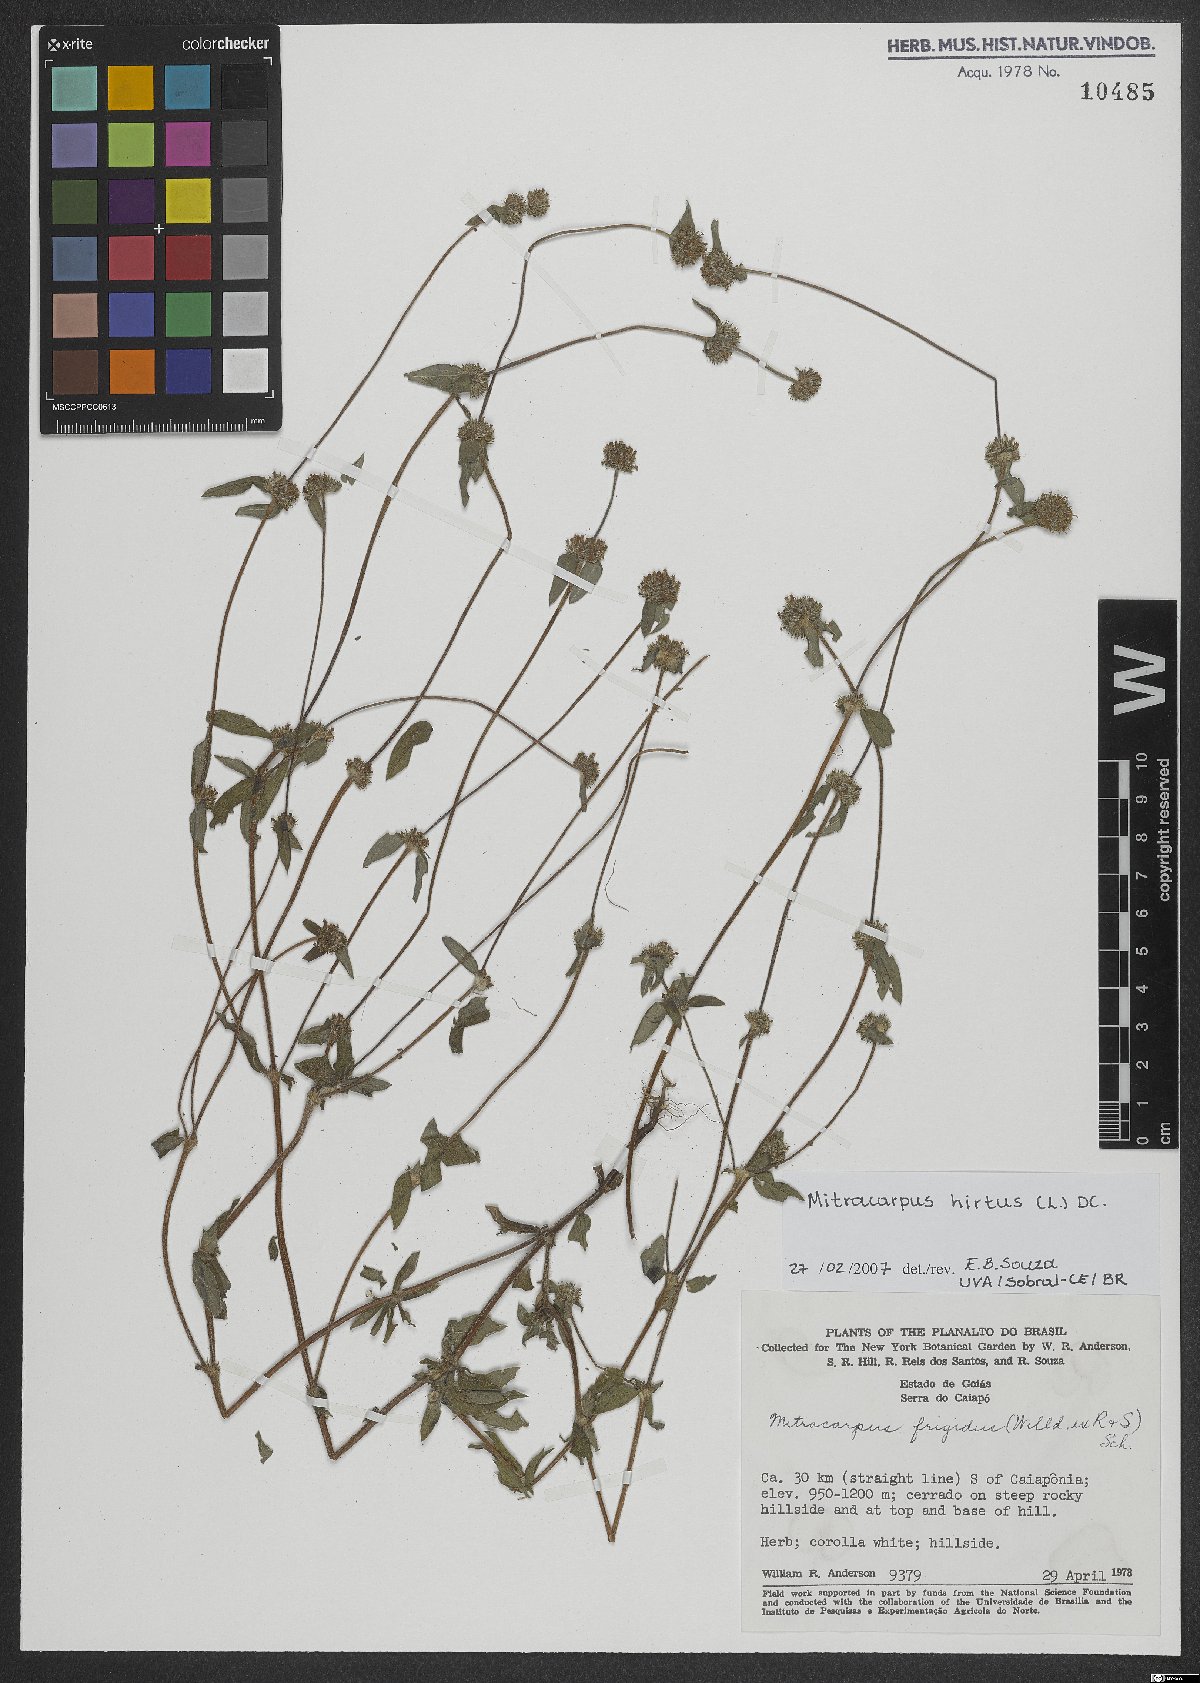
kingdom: Plantae
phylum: Tracheophyta
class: Magnoliopsida
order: Gentianales
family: Rubiaceae
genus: Mitracarpus
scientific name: Mitracarpus hirtus
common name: Tropical girdlepod
